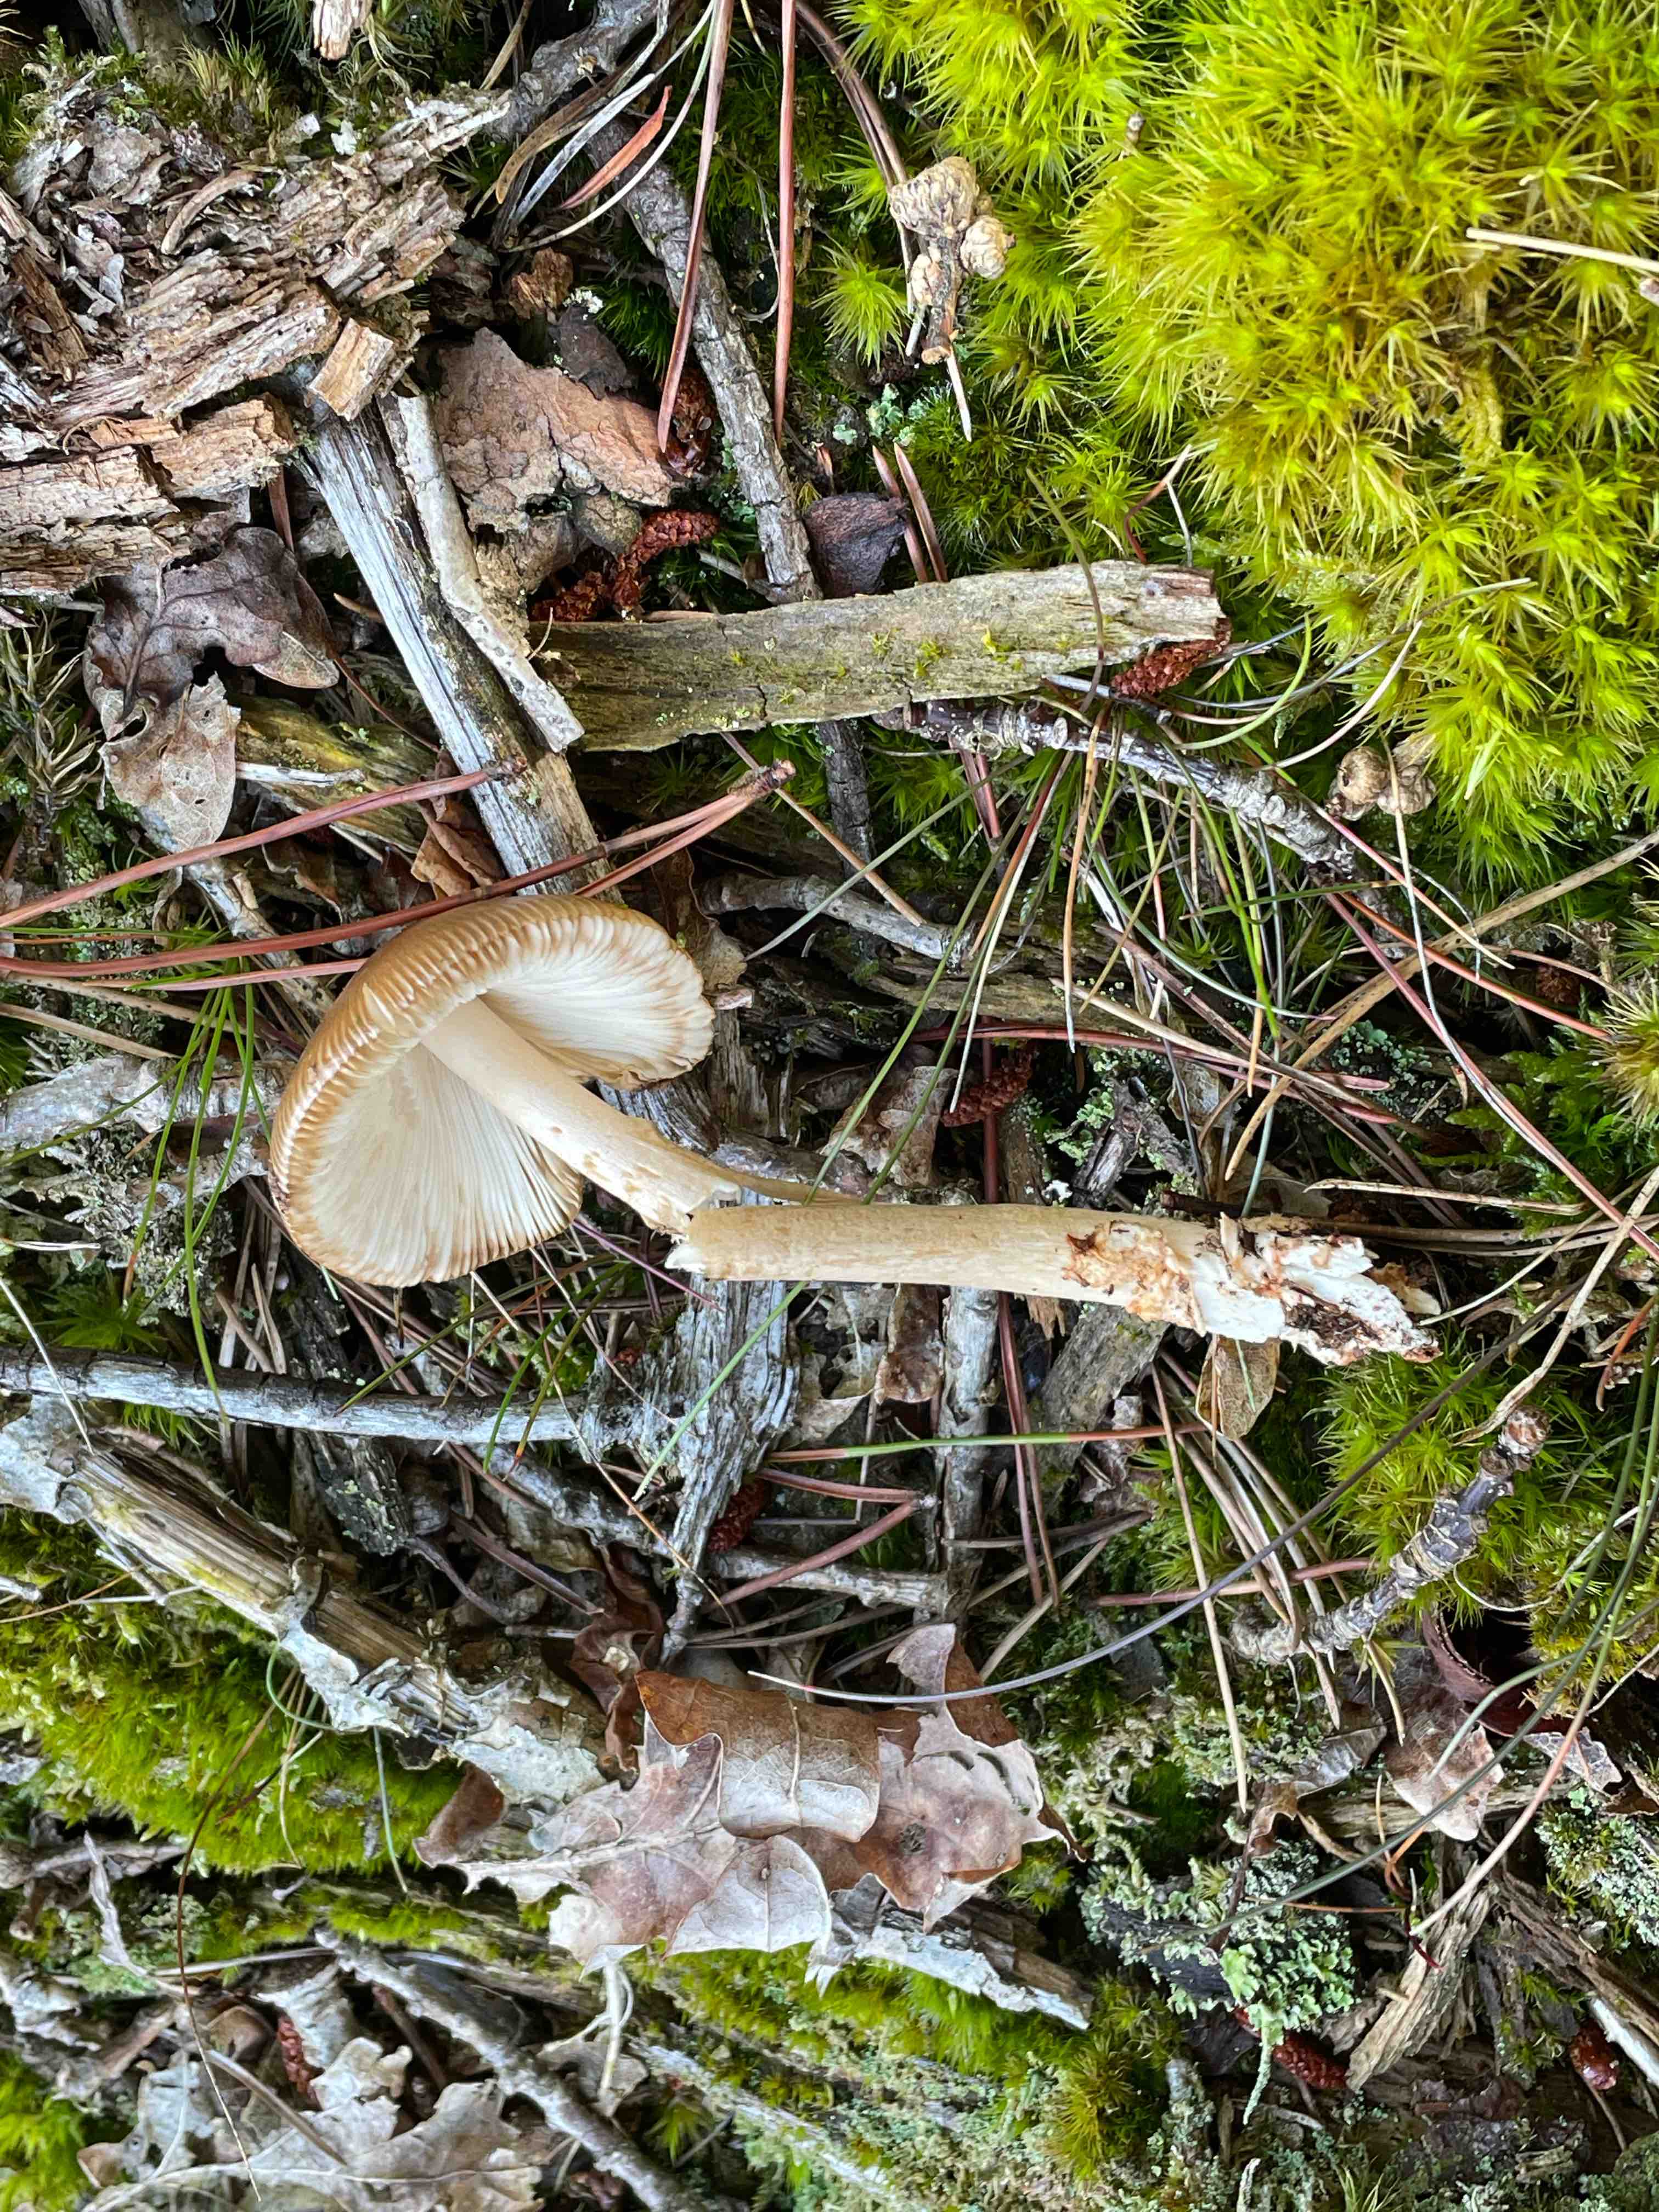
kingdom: Fungi
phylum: Basidiomycota
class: Agaricomycetes
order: Agaricales
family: Amanitaceae
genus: Amanita
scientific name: Amanita fulva
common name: brun kam-fluesvamp
